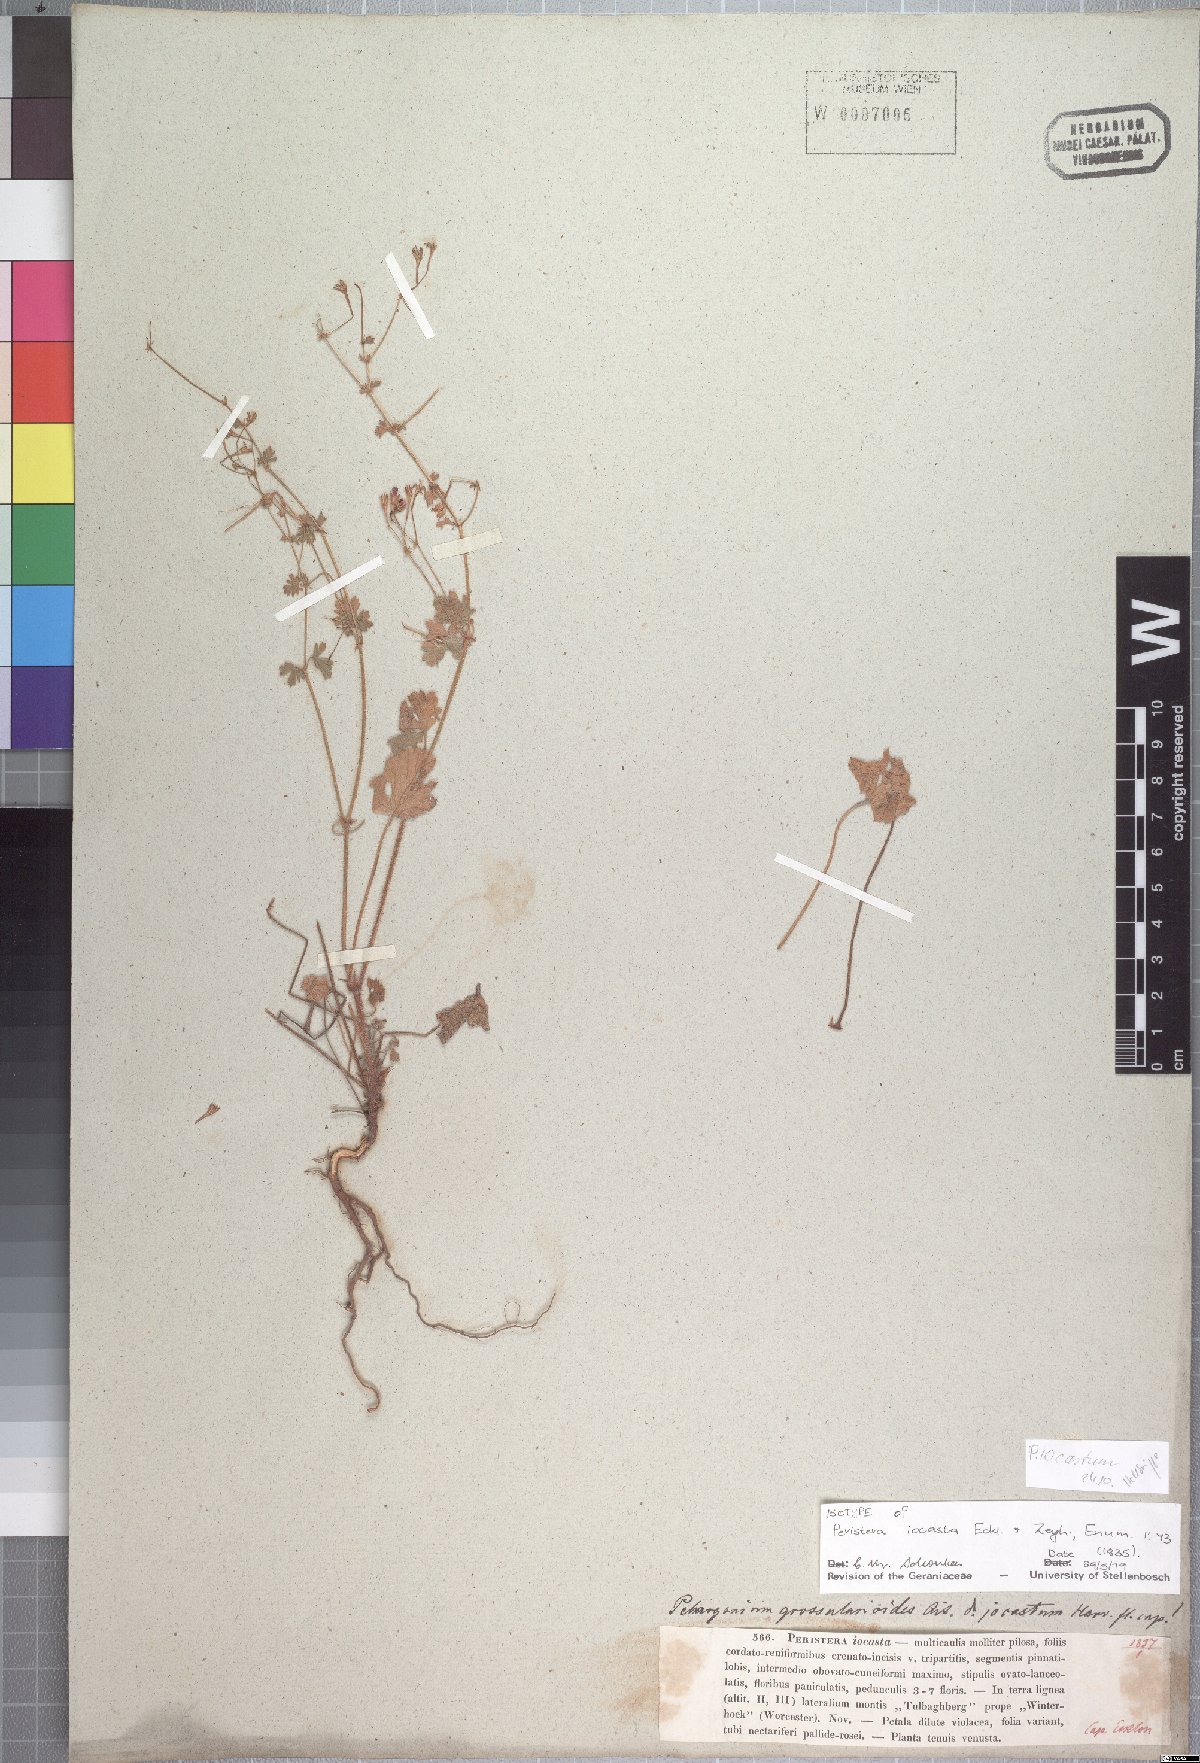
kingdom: Plantae
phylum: Tracheophyta
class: Magnoliopsida
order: Geraniales
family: Geraniaceae
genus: Pelargonium
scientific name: Pelargonium iocastum
